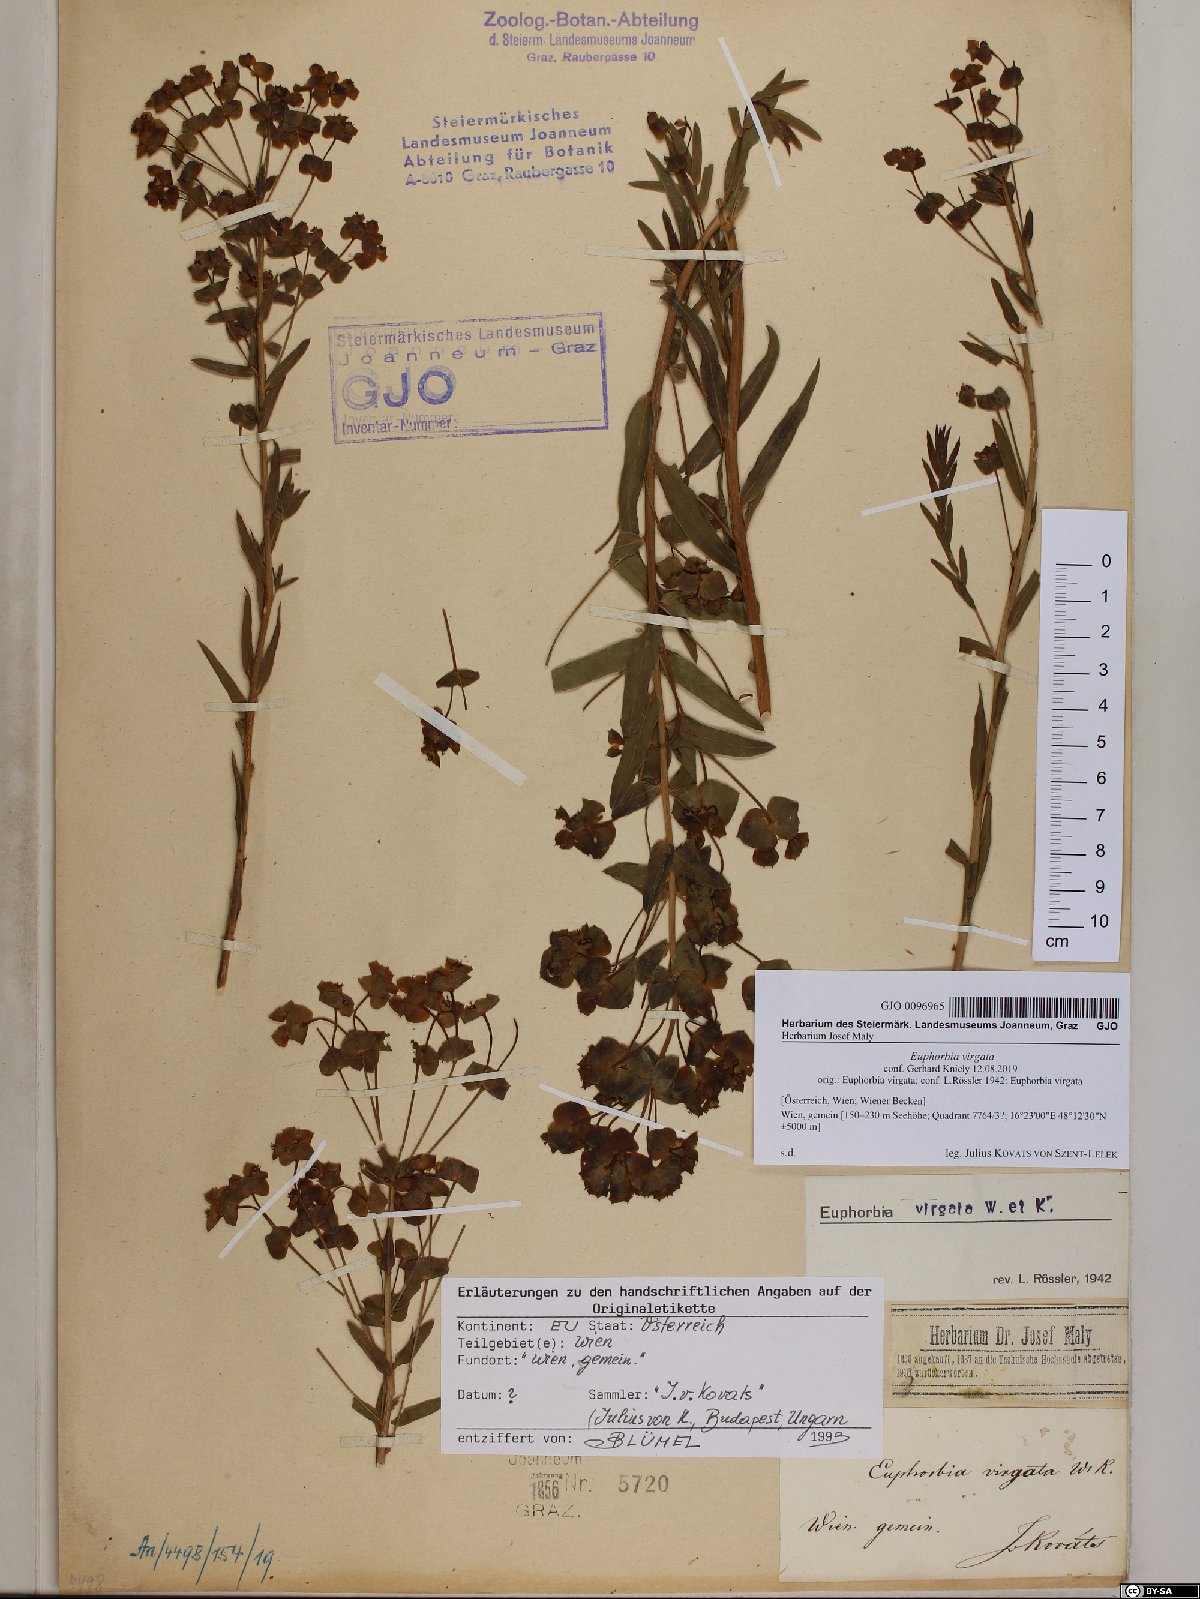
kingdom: Plantae
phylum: Tracheophyta
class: Magnoliopsida
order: Malpighiales
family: Euphorbiaceae
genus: Euphorbia
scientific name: Euphorbia virgata
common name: Leafy spurge
